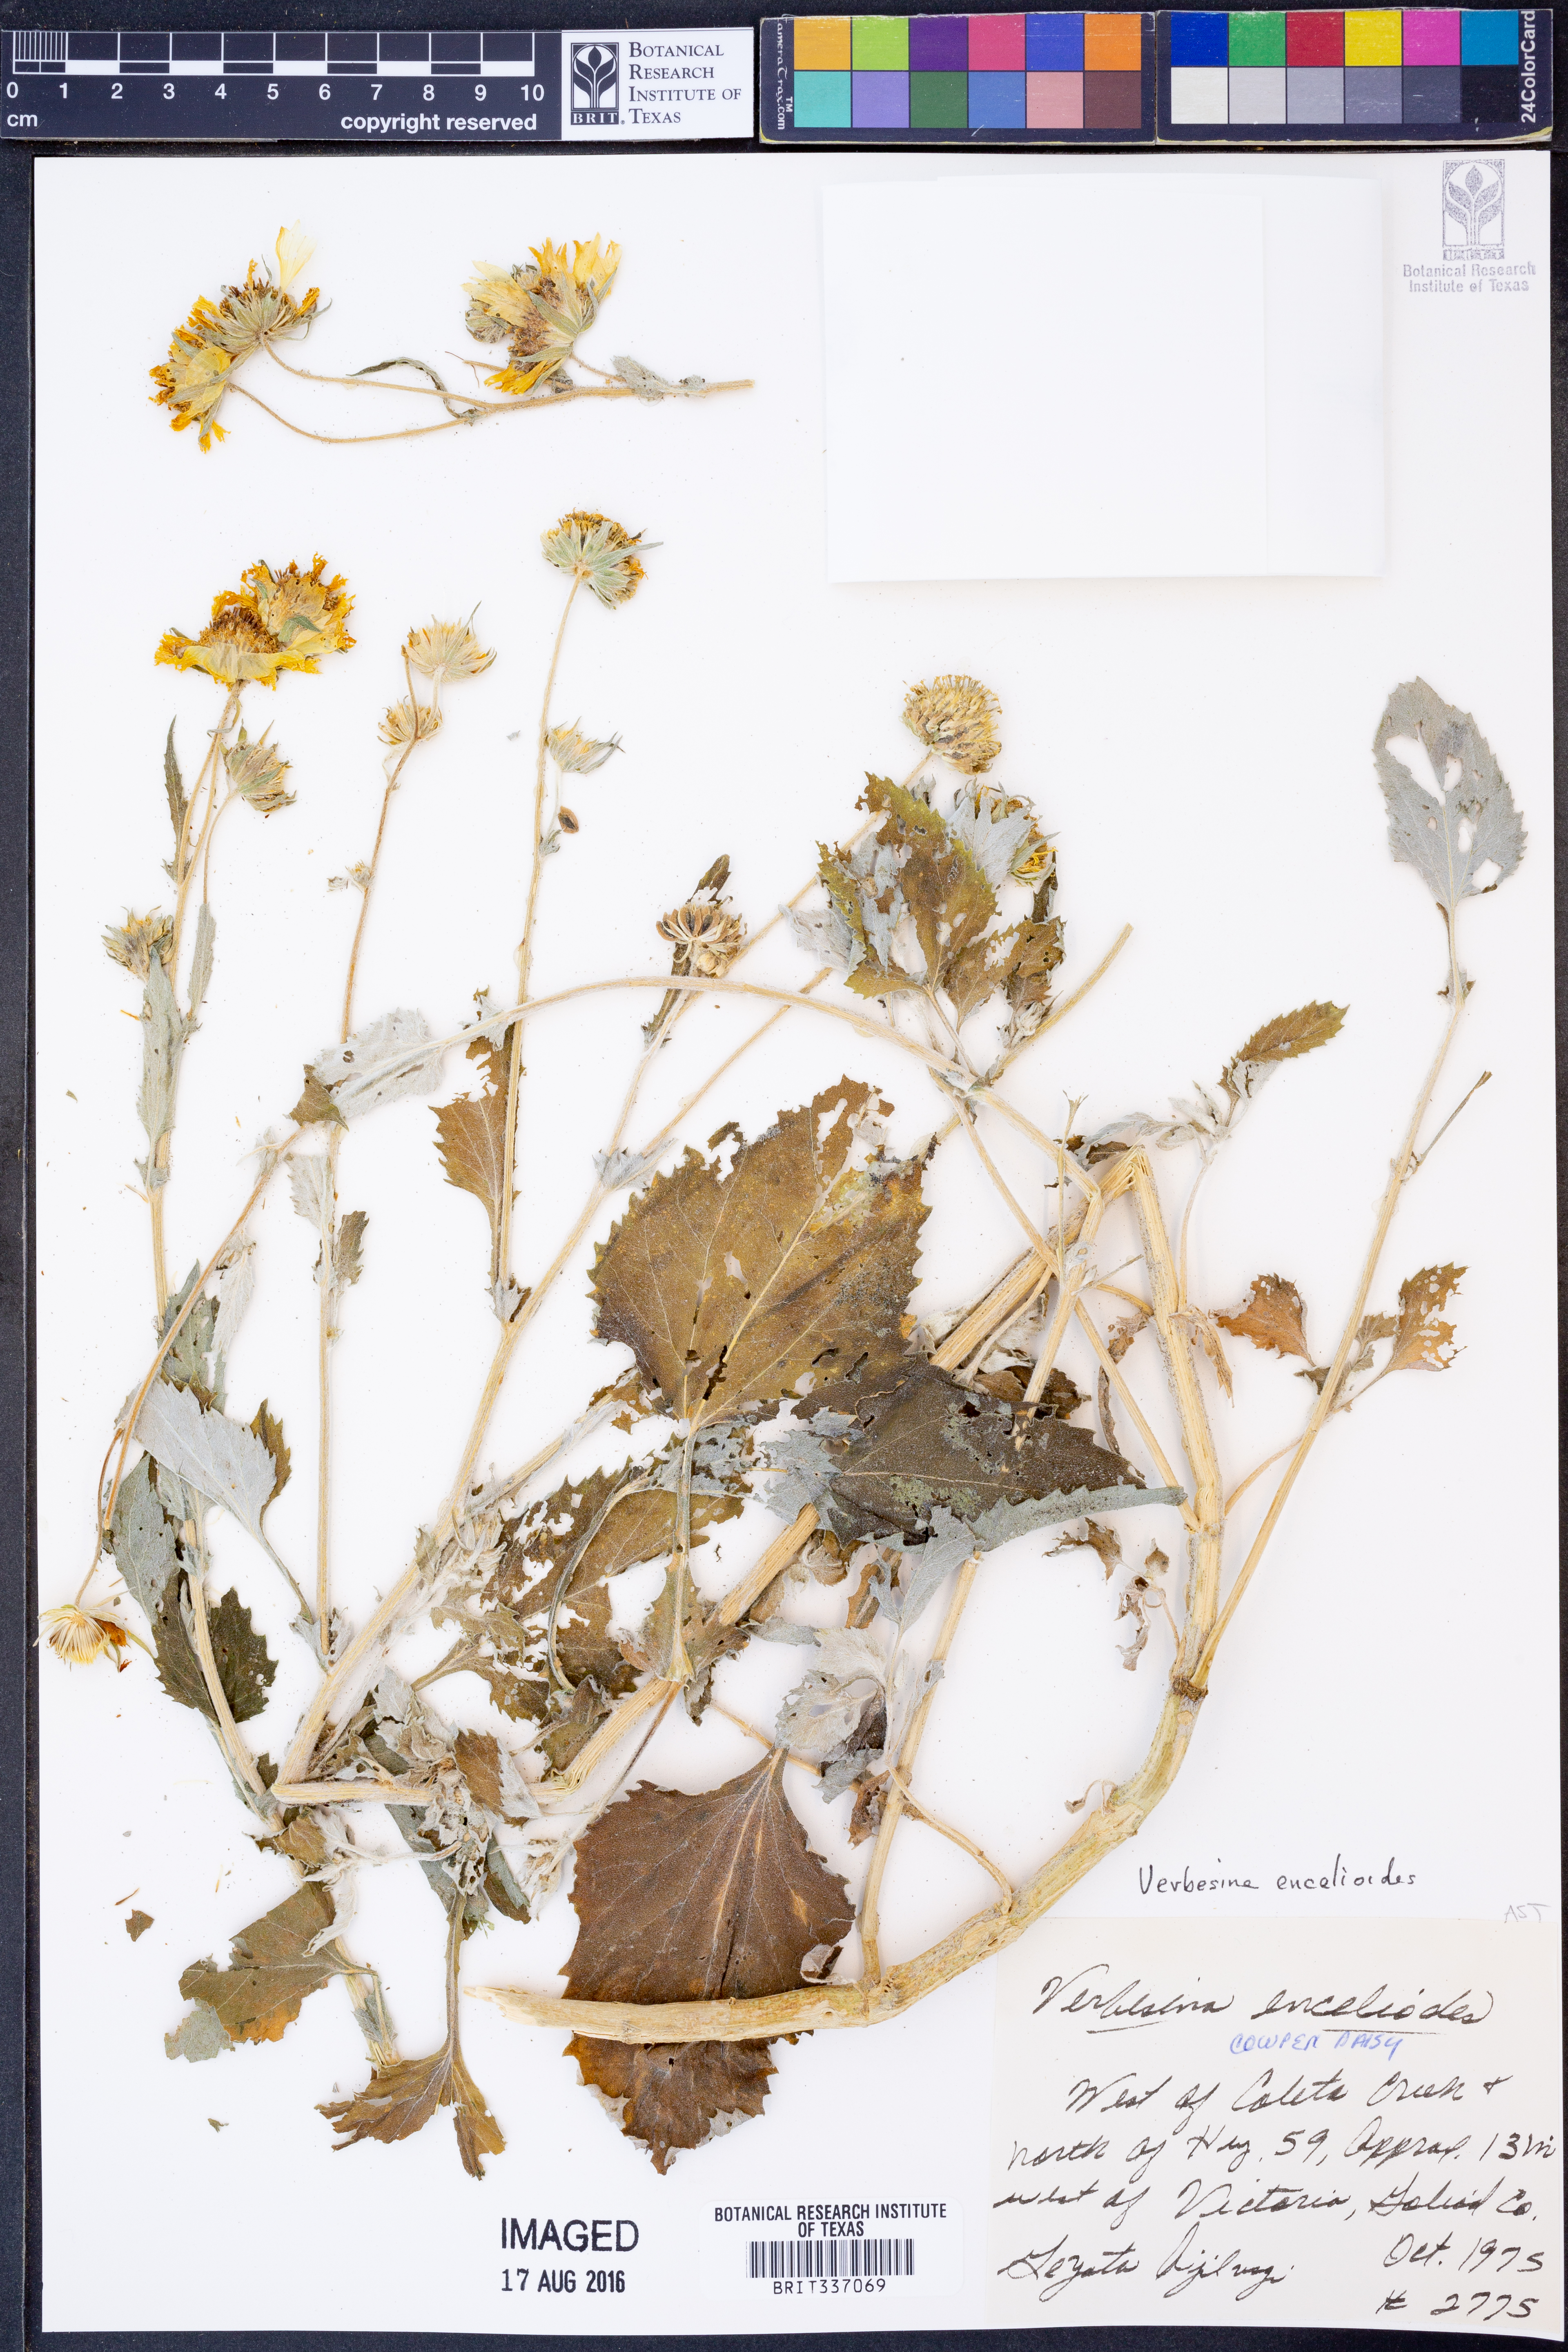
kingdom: Plantae
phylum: Tracheophyta
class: Magnoliopsida
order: Asterales
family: Asteraceae
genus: Verbesina
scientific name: Verbesina encelioides
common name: Golden crownbeard
